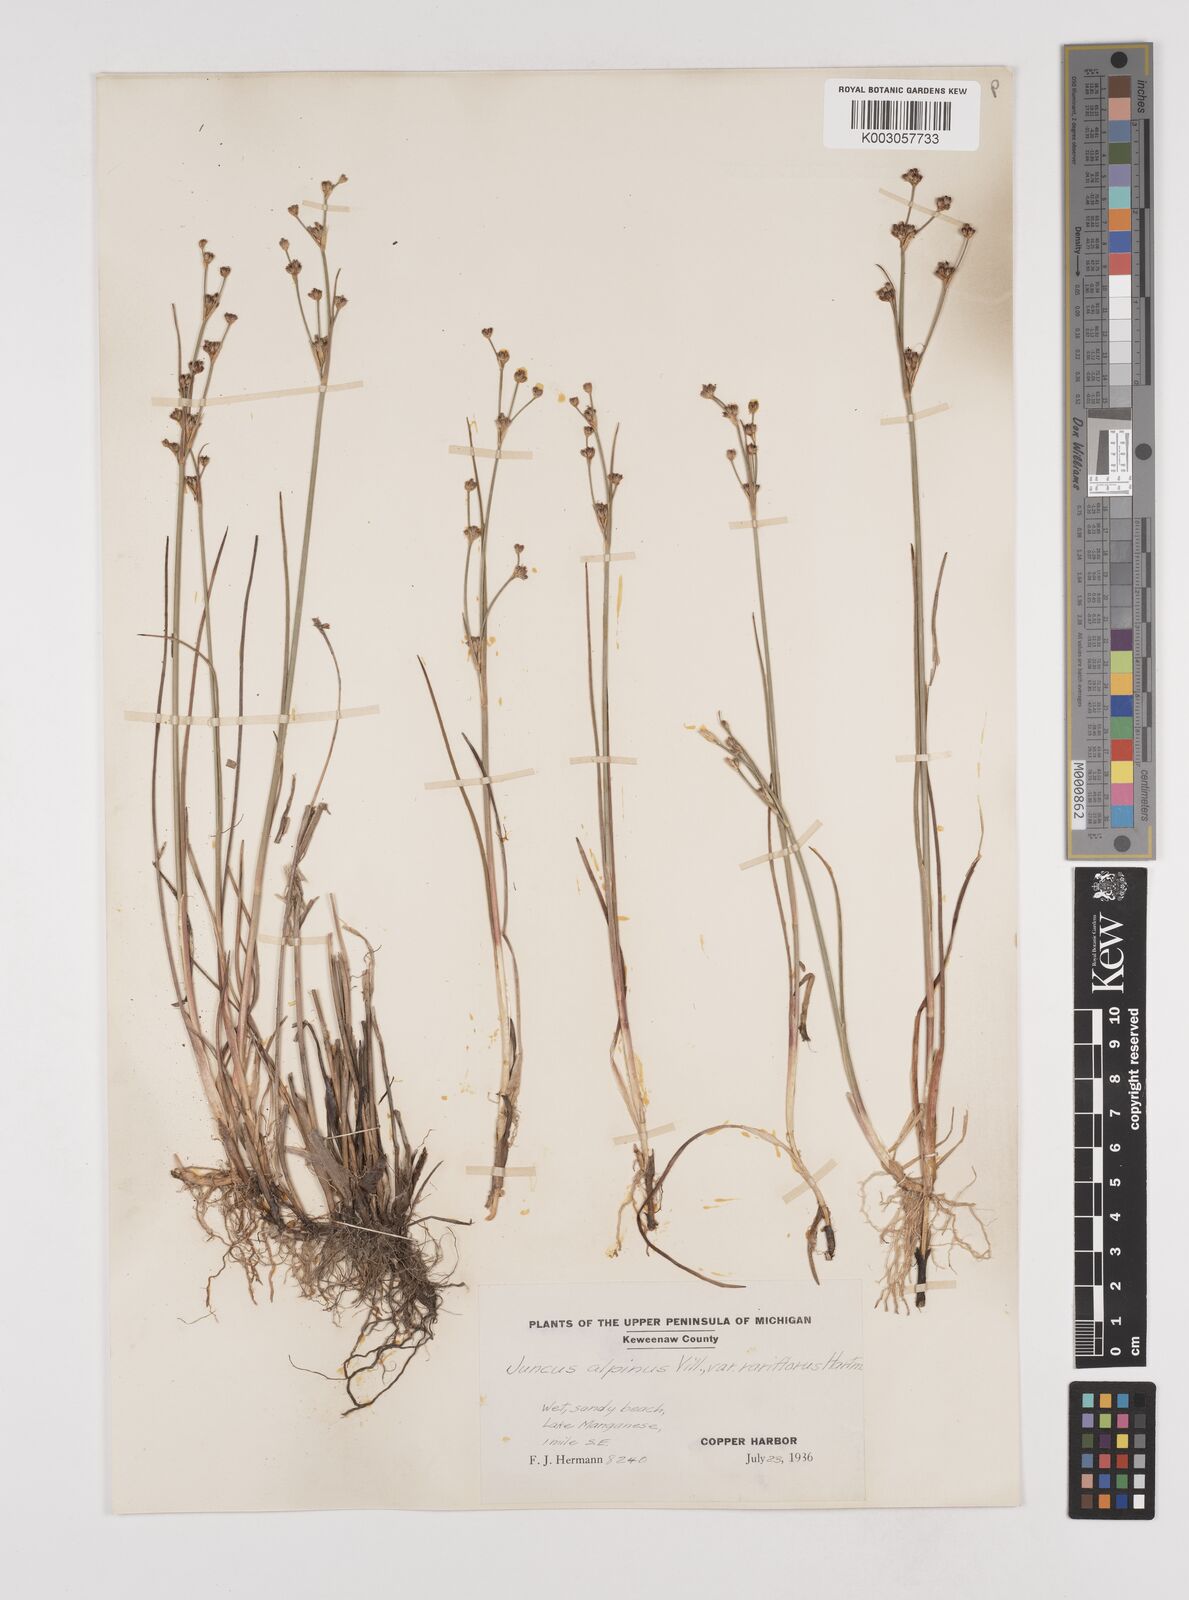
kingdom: Plantae
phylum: Tracheophyta
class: Liliopsida
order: Poales
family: Juncaceae
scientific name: Juncaceae
